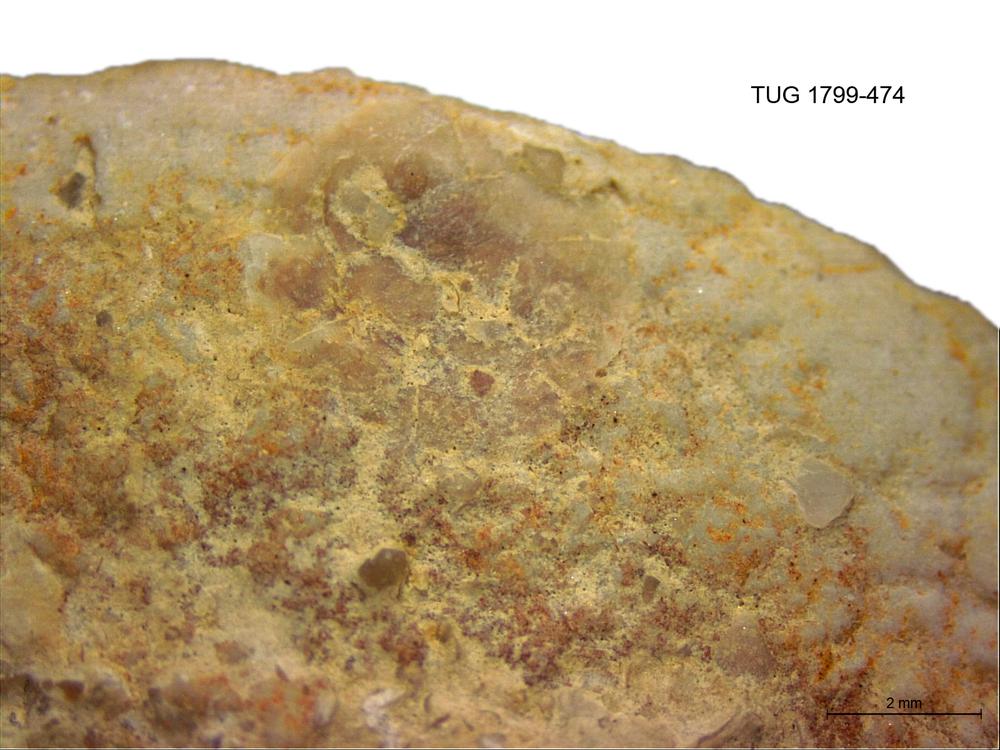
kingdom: Animalia
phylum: Brachiopoda
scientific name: Brachiopoda
